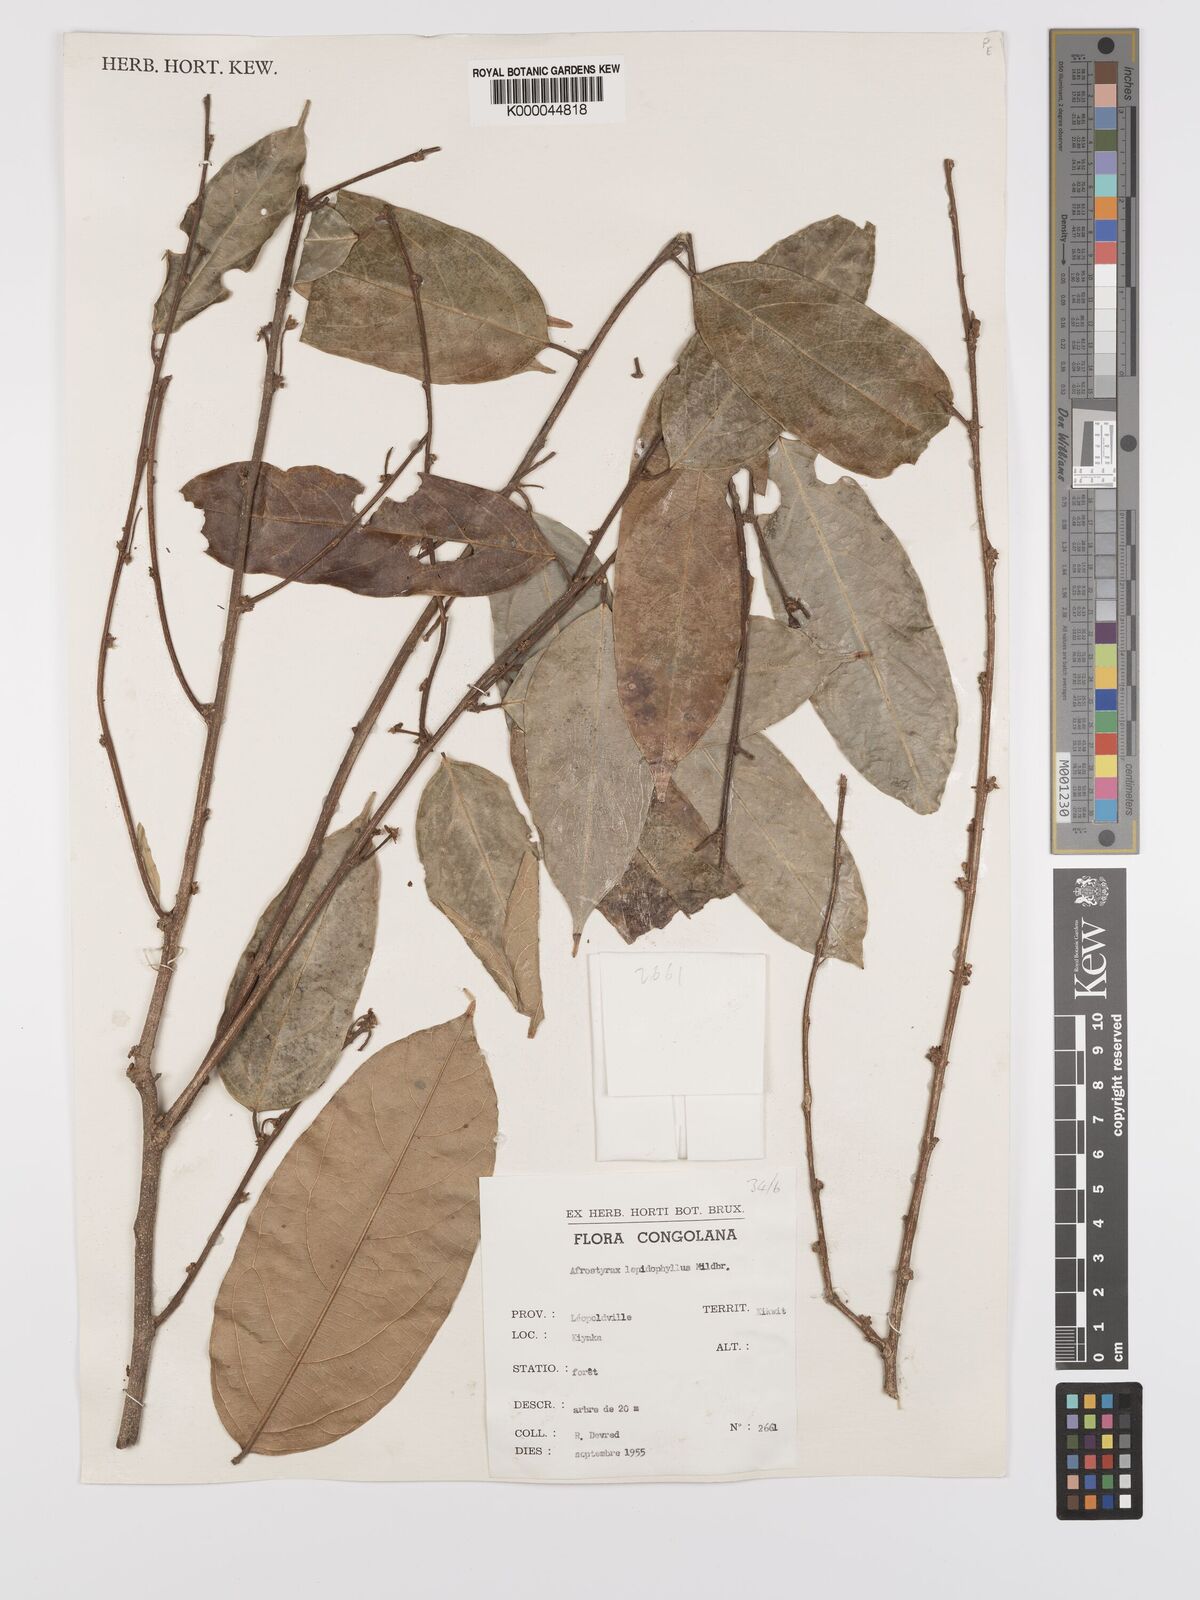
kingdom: Plantae
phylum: Tracheophyta
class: Magnoliopsida
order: Oxalidales
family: Huaceae
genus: Afrostyrax
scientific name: Afrostyrax lepidophyllus
